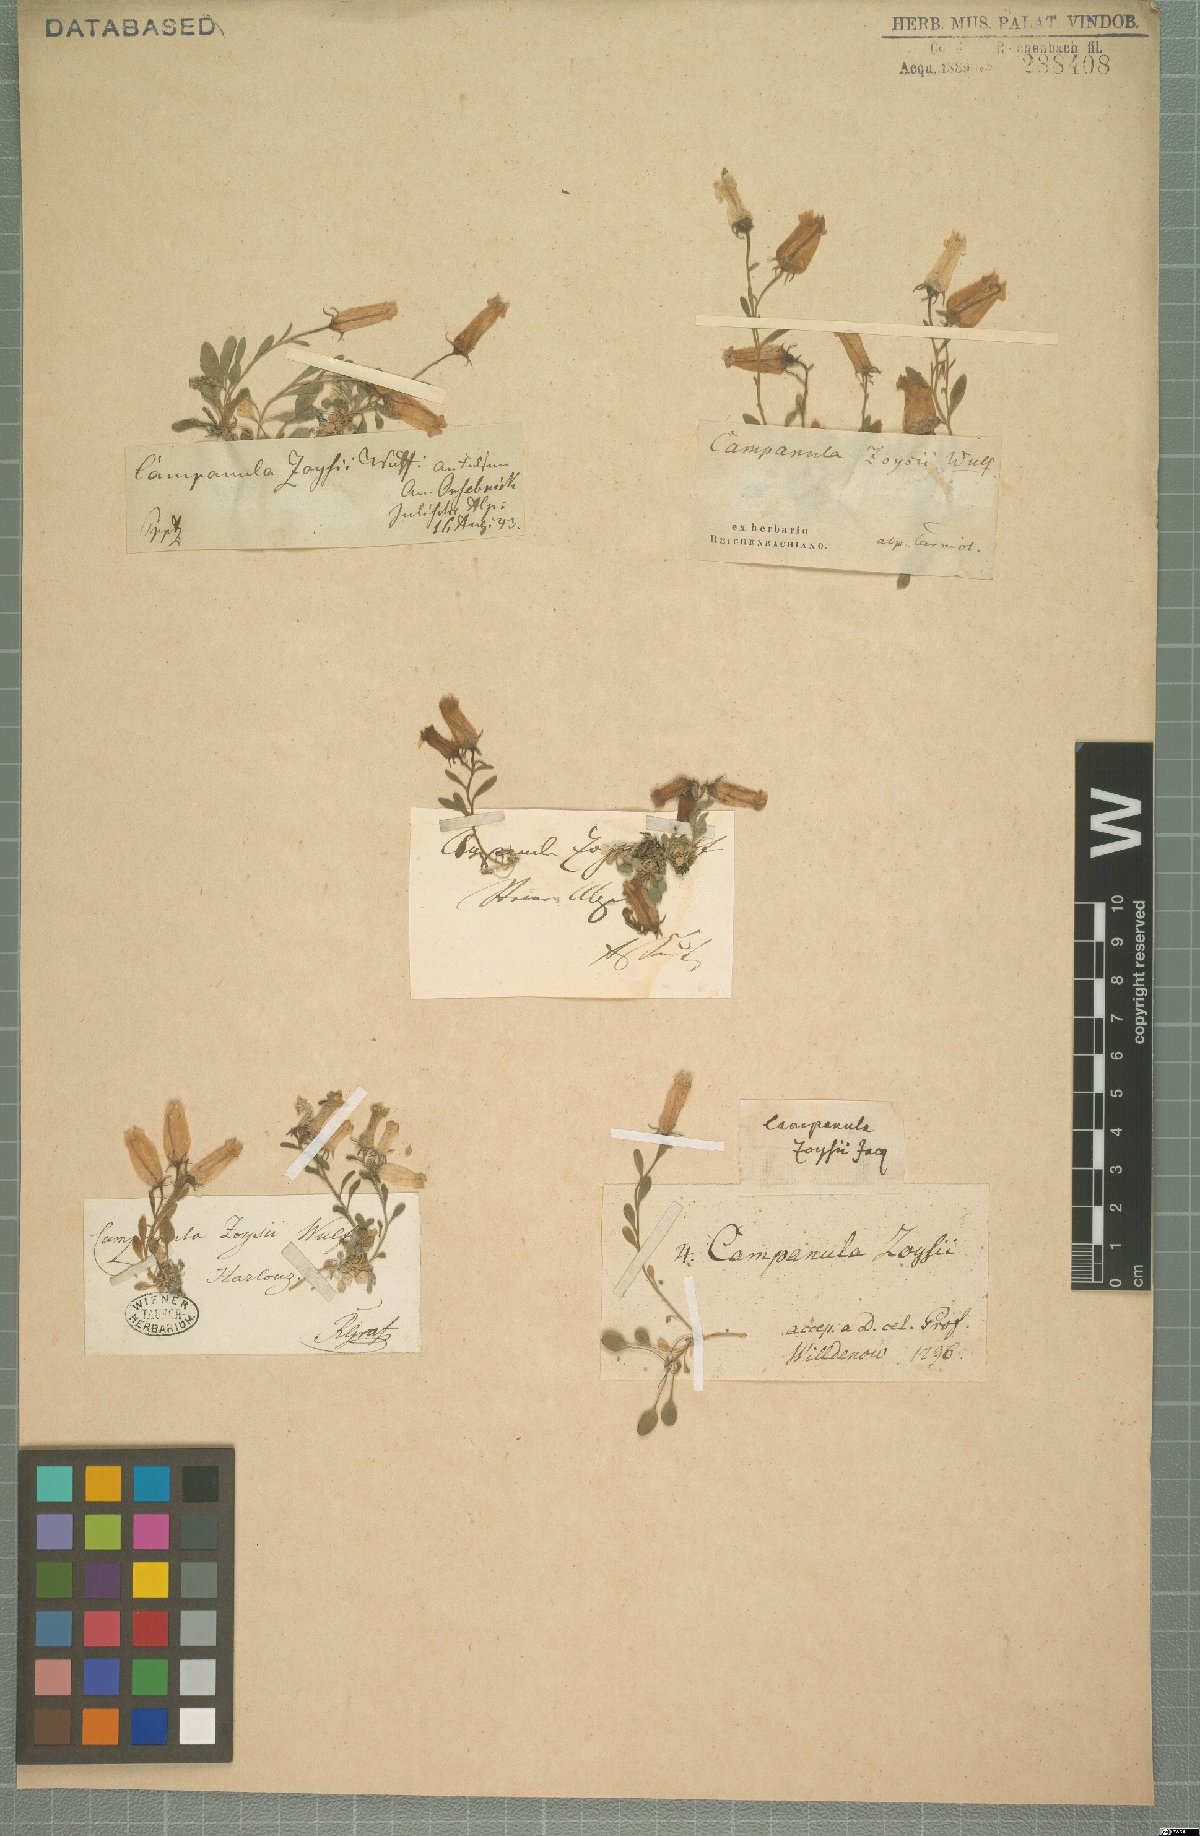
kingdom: Plantae
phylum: Tracheophyta
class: Magnoliopsida
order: Asterales
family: Campanulaceae
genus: Favratia
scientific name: Favratia zoysii
